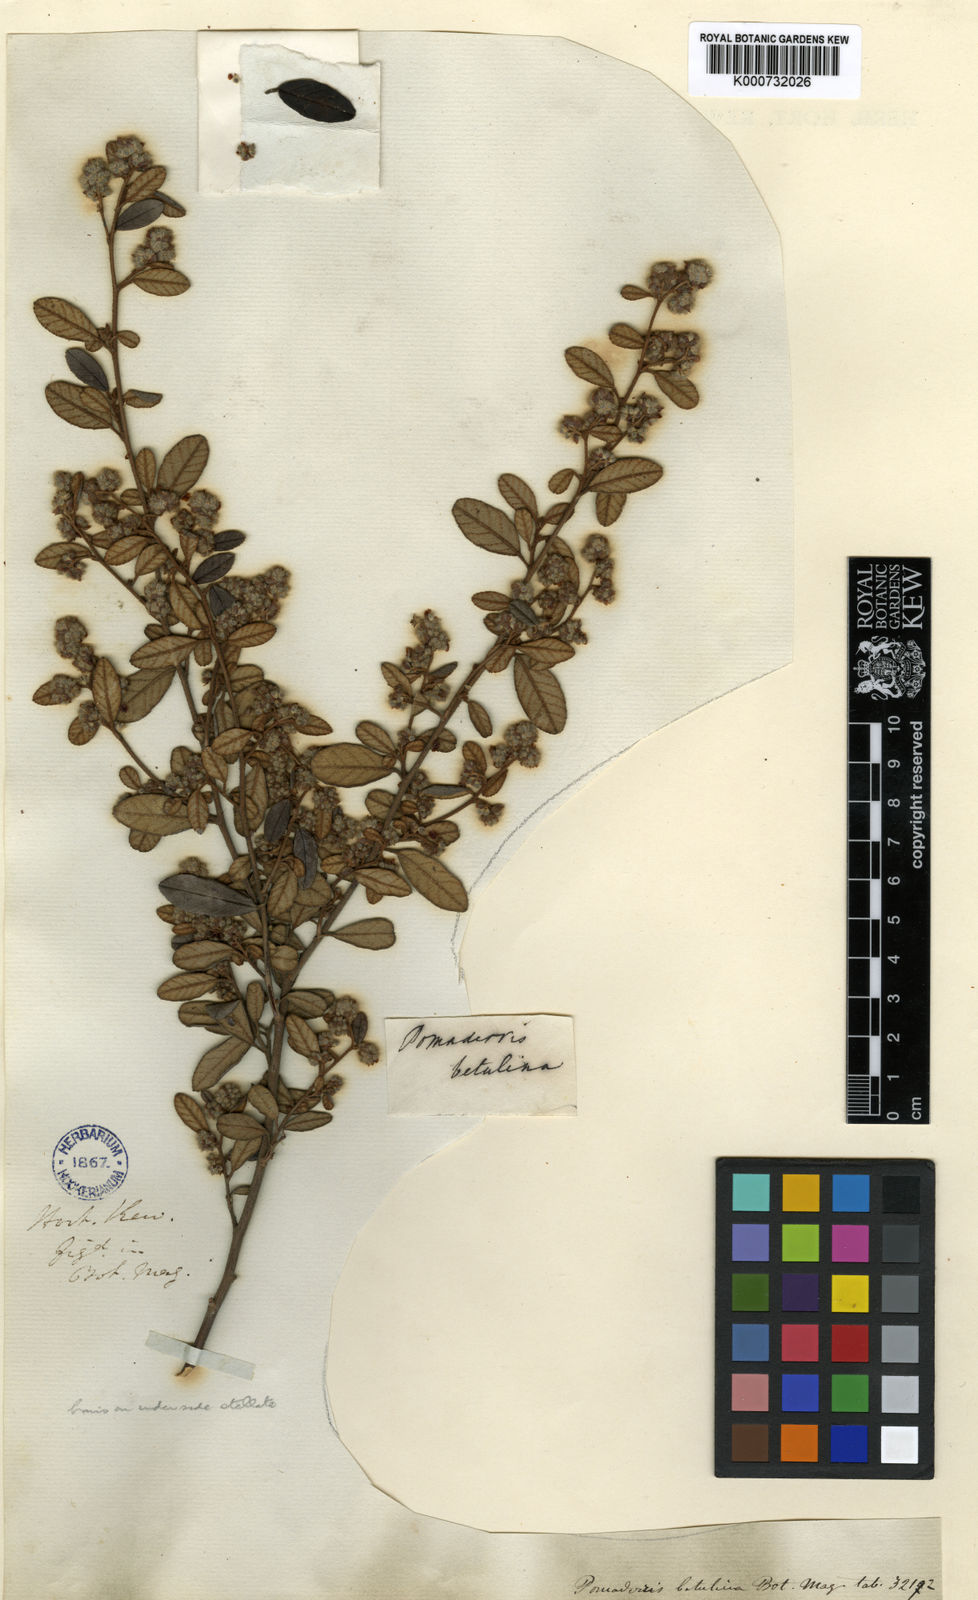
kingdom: Plantae
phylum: Tracheophyta
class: Magnoliopsida
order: Rosales
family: Rhamnaceae
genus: Pomaderris
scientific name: Pomaderris betulina
